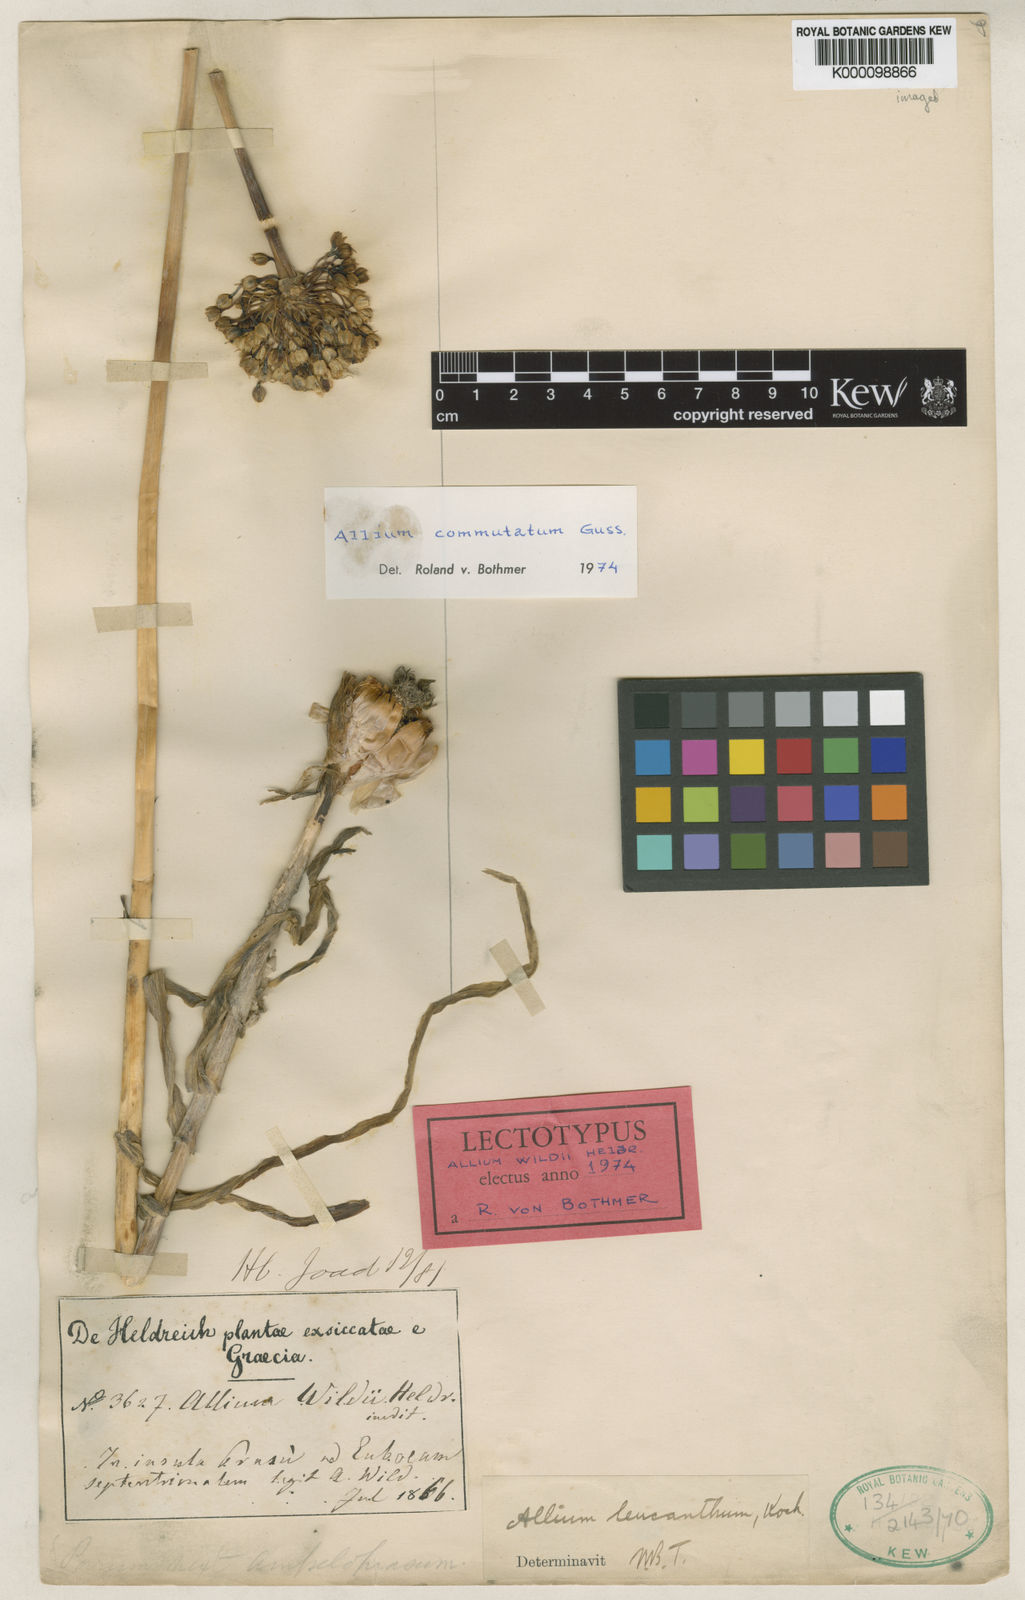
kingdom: Plantae
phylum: Tracheophyta
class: Liliopsida
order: Asparagales
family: Amaryllidaceae
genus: Allium
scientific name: Allium commutatum
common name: Sea garlic
